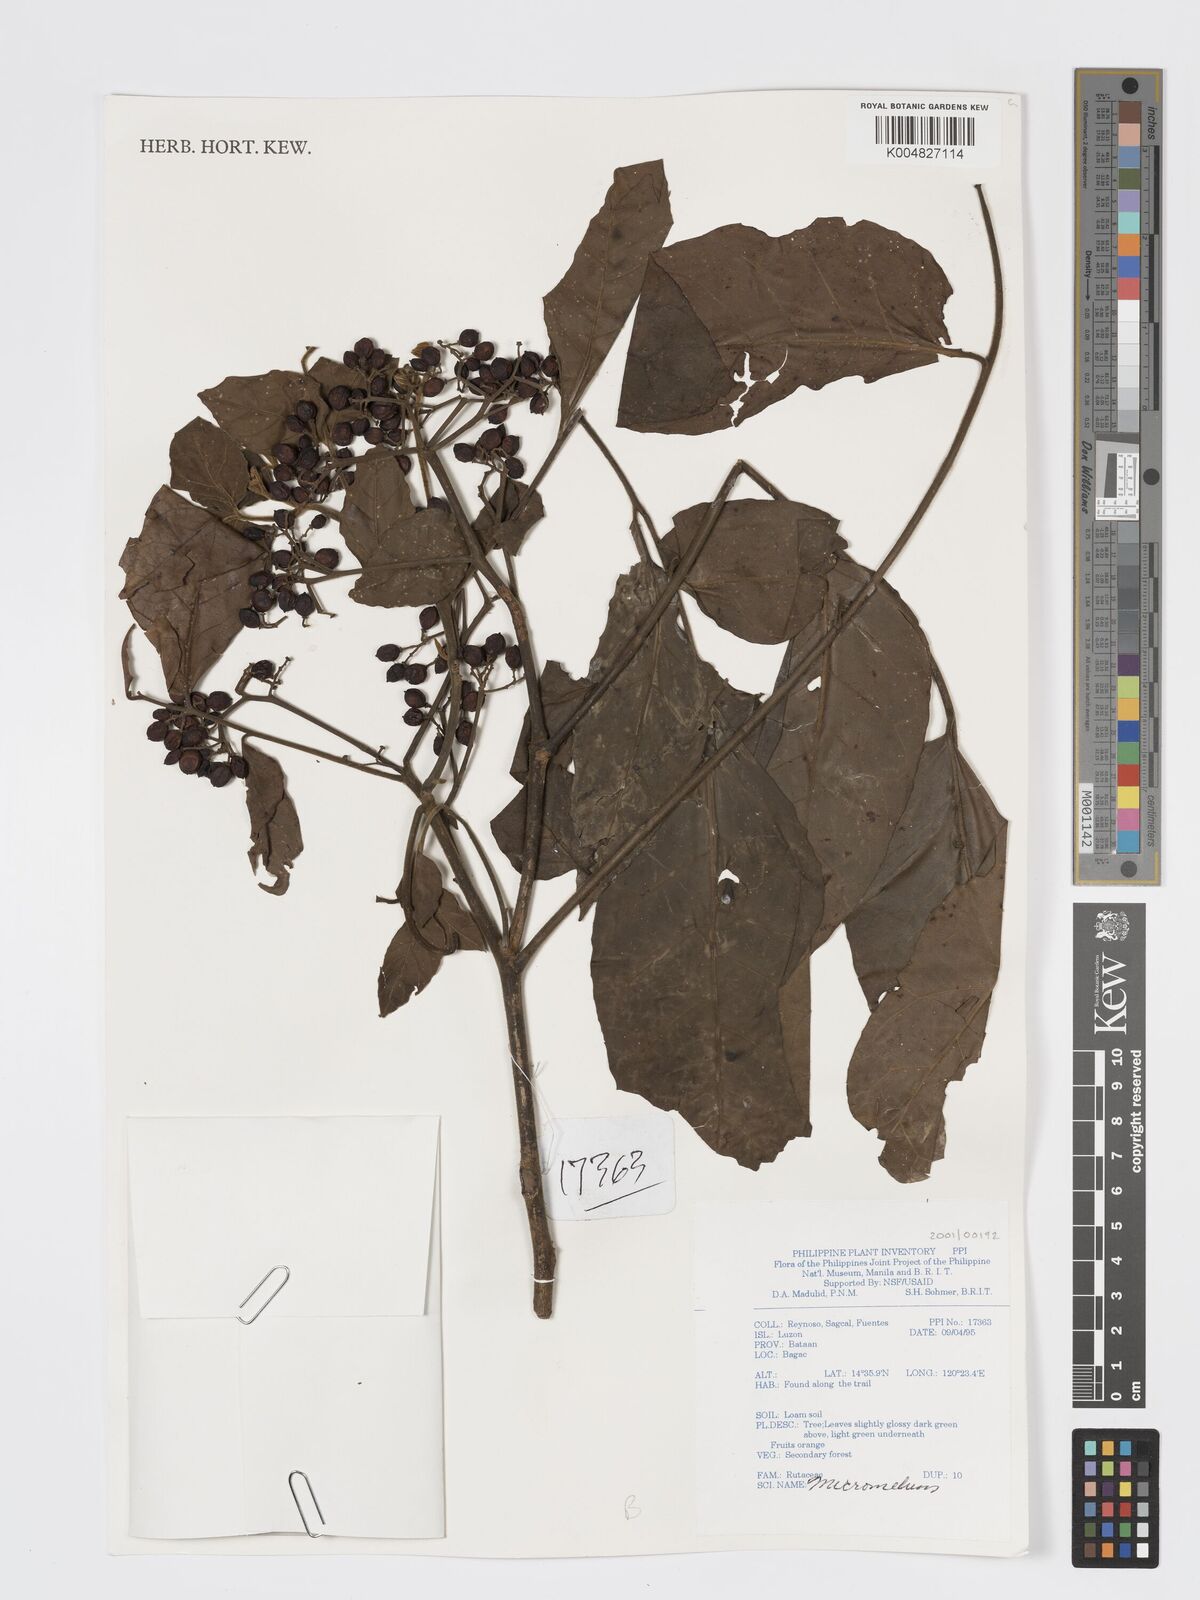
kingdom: Plantae
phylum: Tracheophyta
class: Magnoliopsida
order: Sapindales
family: Rutaceae
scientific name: Rutaceae
